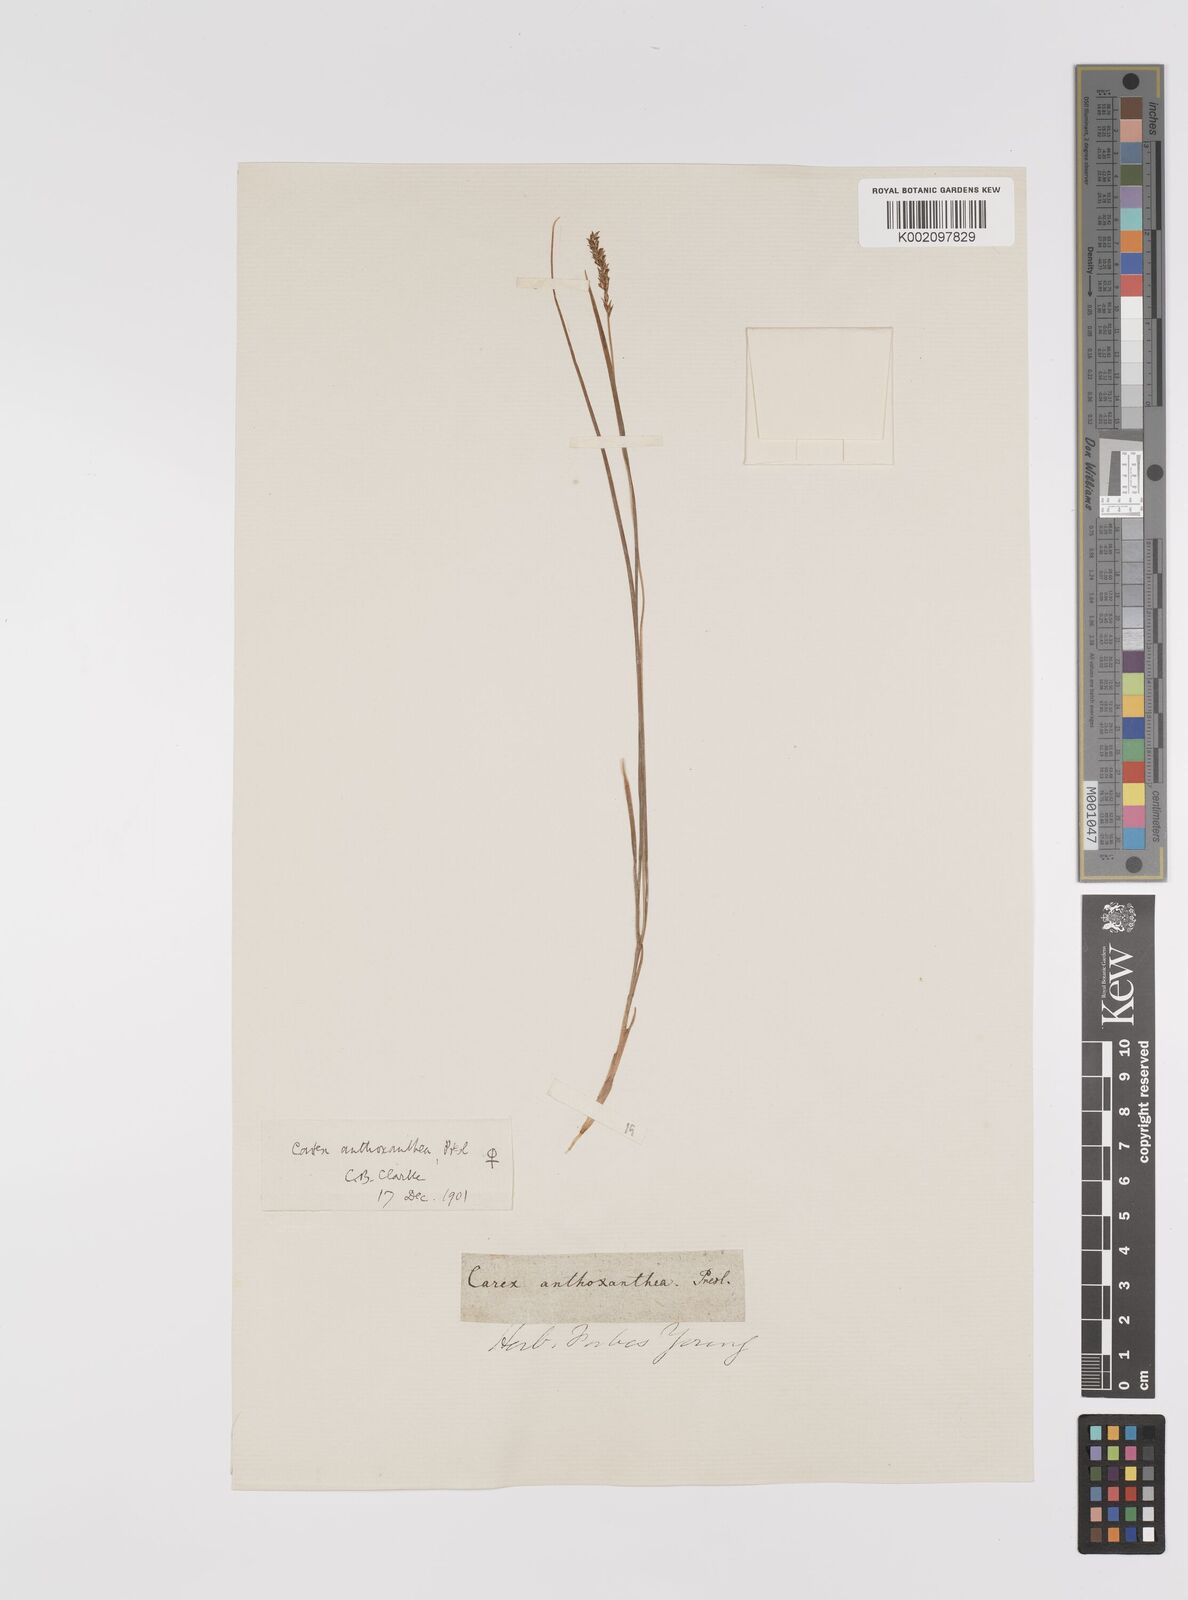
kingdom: Plantae
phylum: Tracheophyta
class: Liliopsida
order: Poales
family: Cyperaceae
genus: Carex
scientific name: Carex anthoxanthea
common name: Grassy-slope arctic sedge
